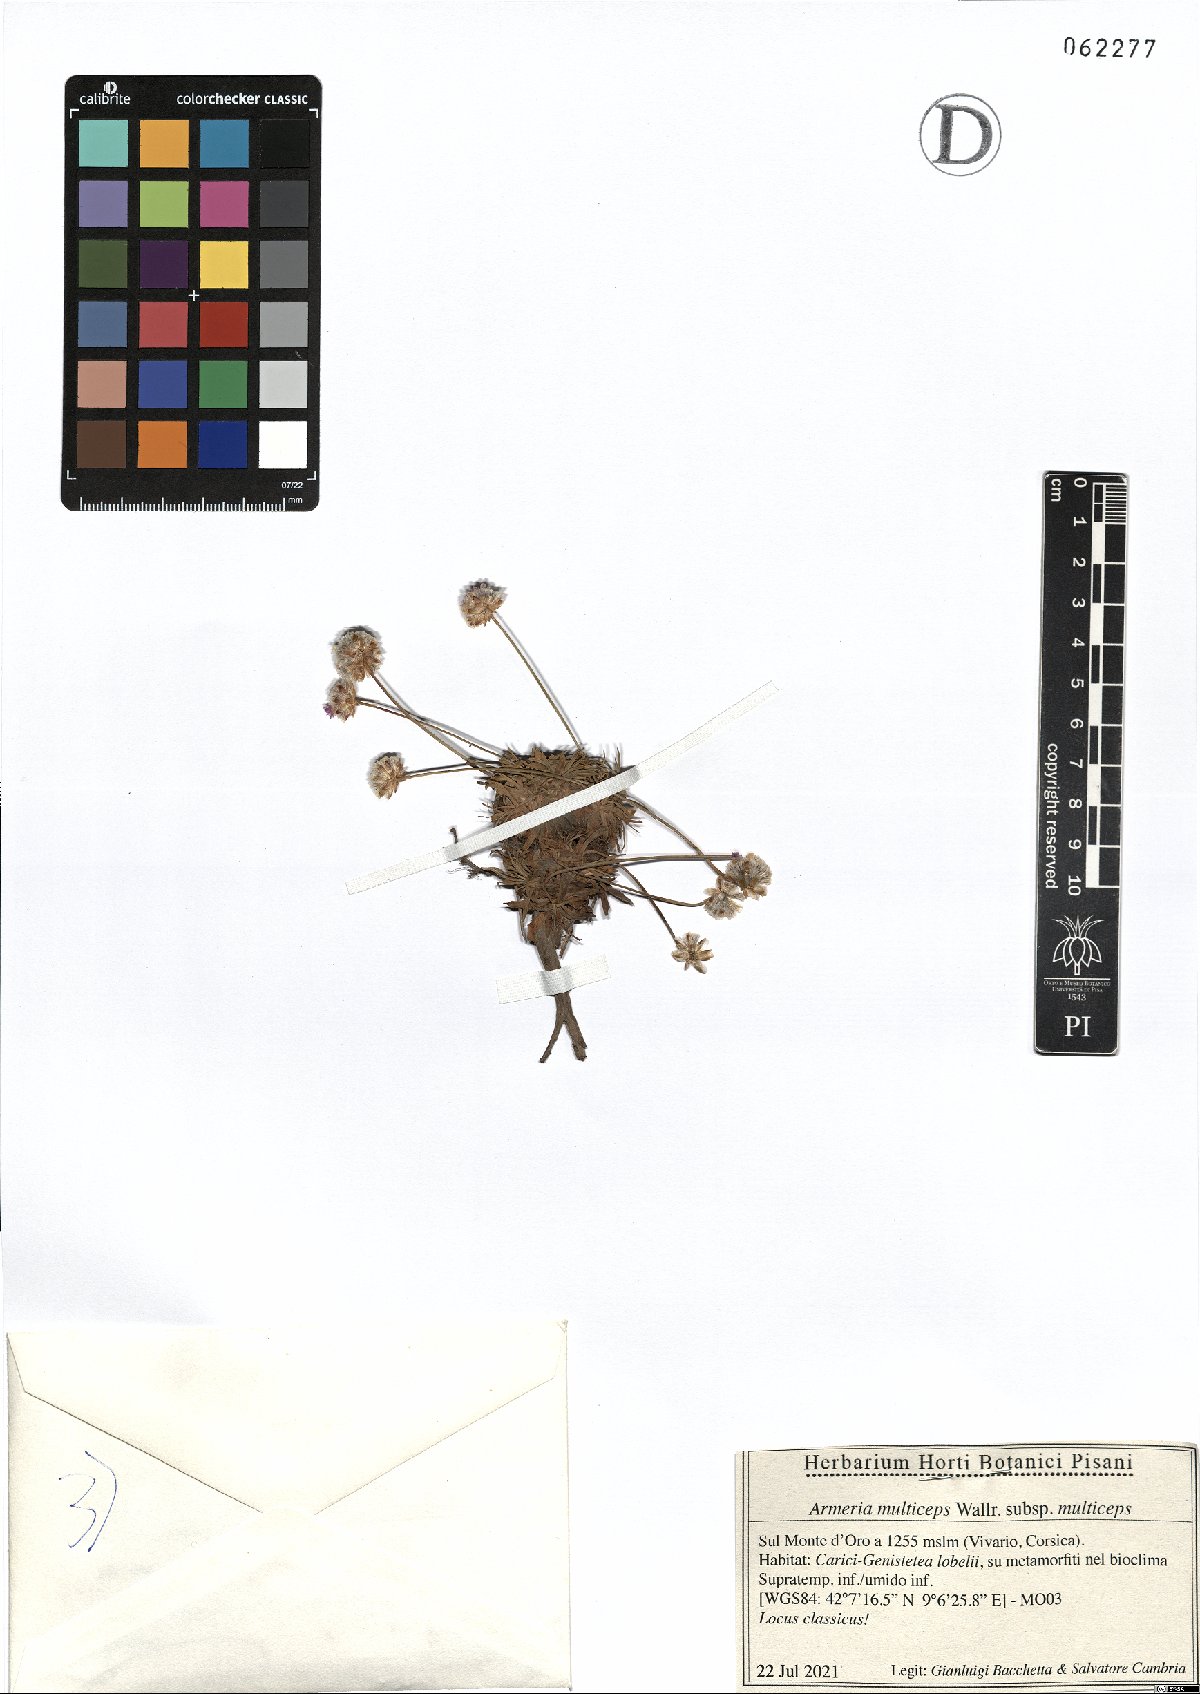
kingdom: Plantae
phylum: Tracheophyta
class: Magnoliopsida
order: Caryophyllales
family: Plumbaginaceae
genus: Armeria
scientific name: Armeria multiceps
